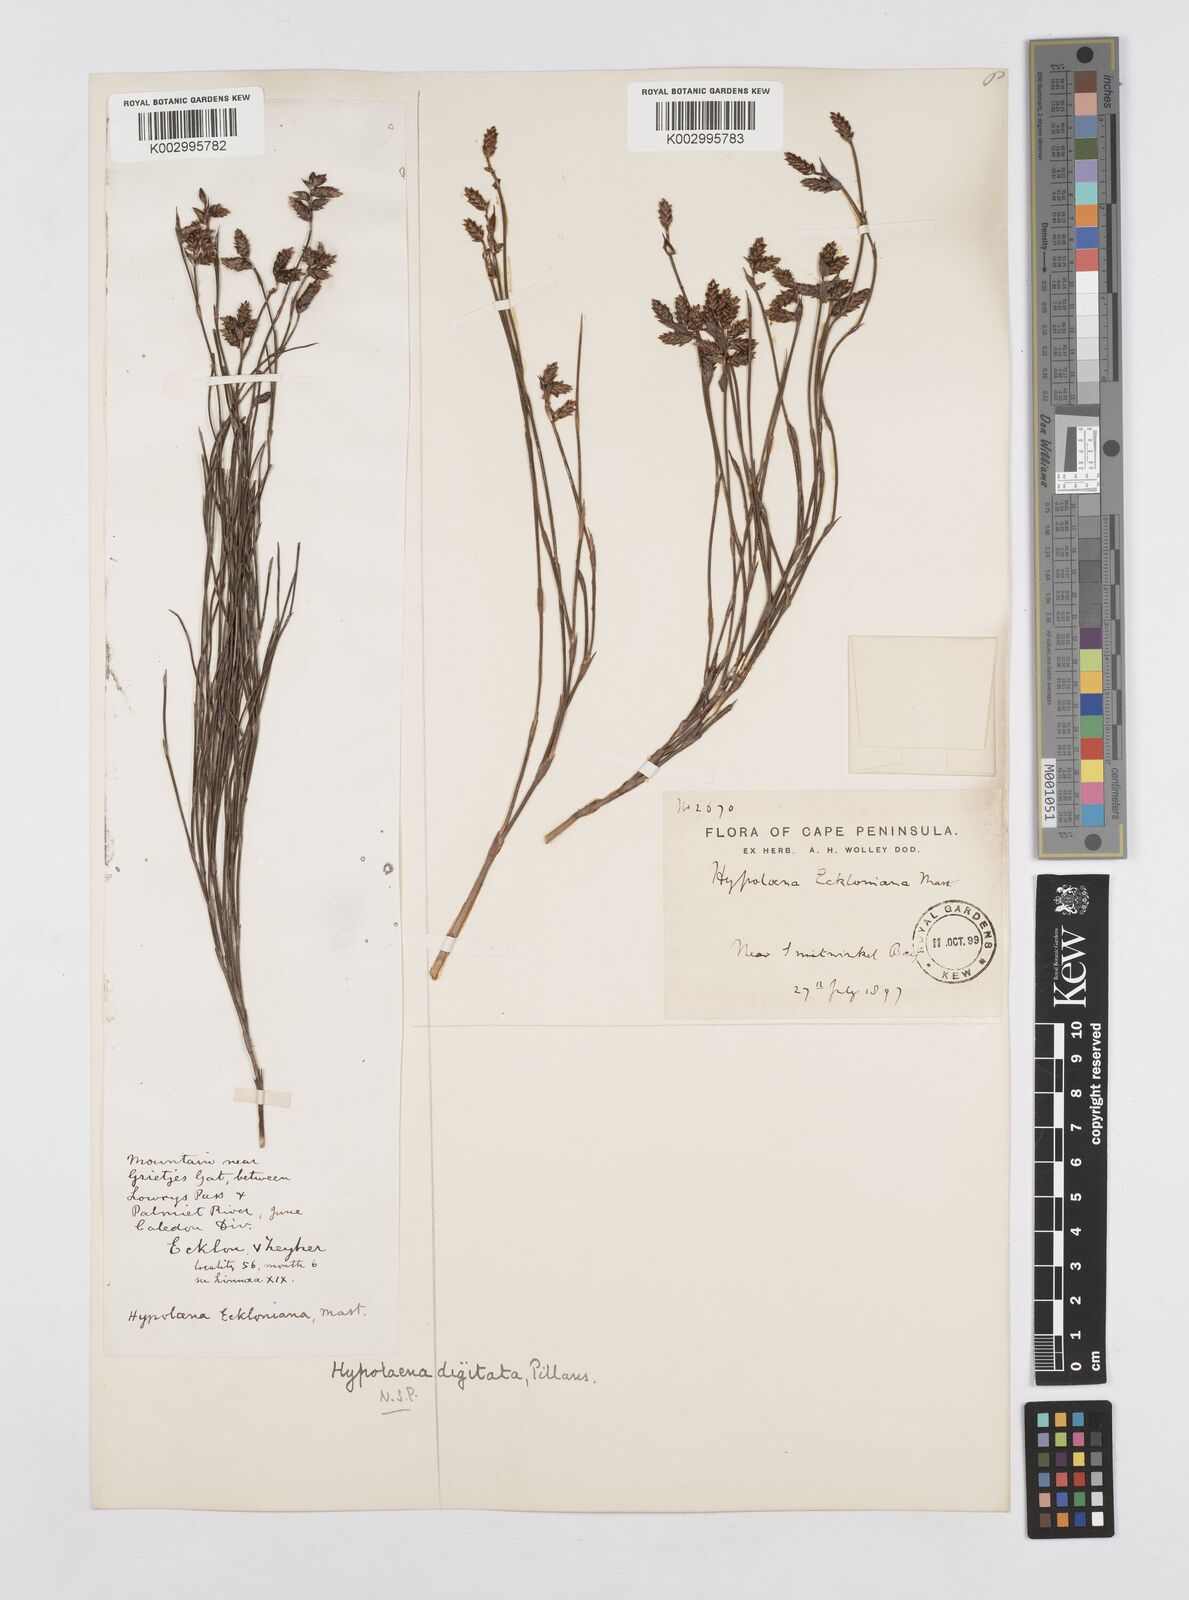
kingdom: Plantae
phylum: Tracheophyta
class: Liliopsida
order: Poales
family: Restionaceae
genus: Mastersiella
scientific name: Mastersiella digitata
